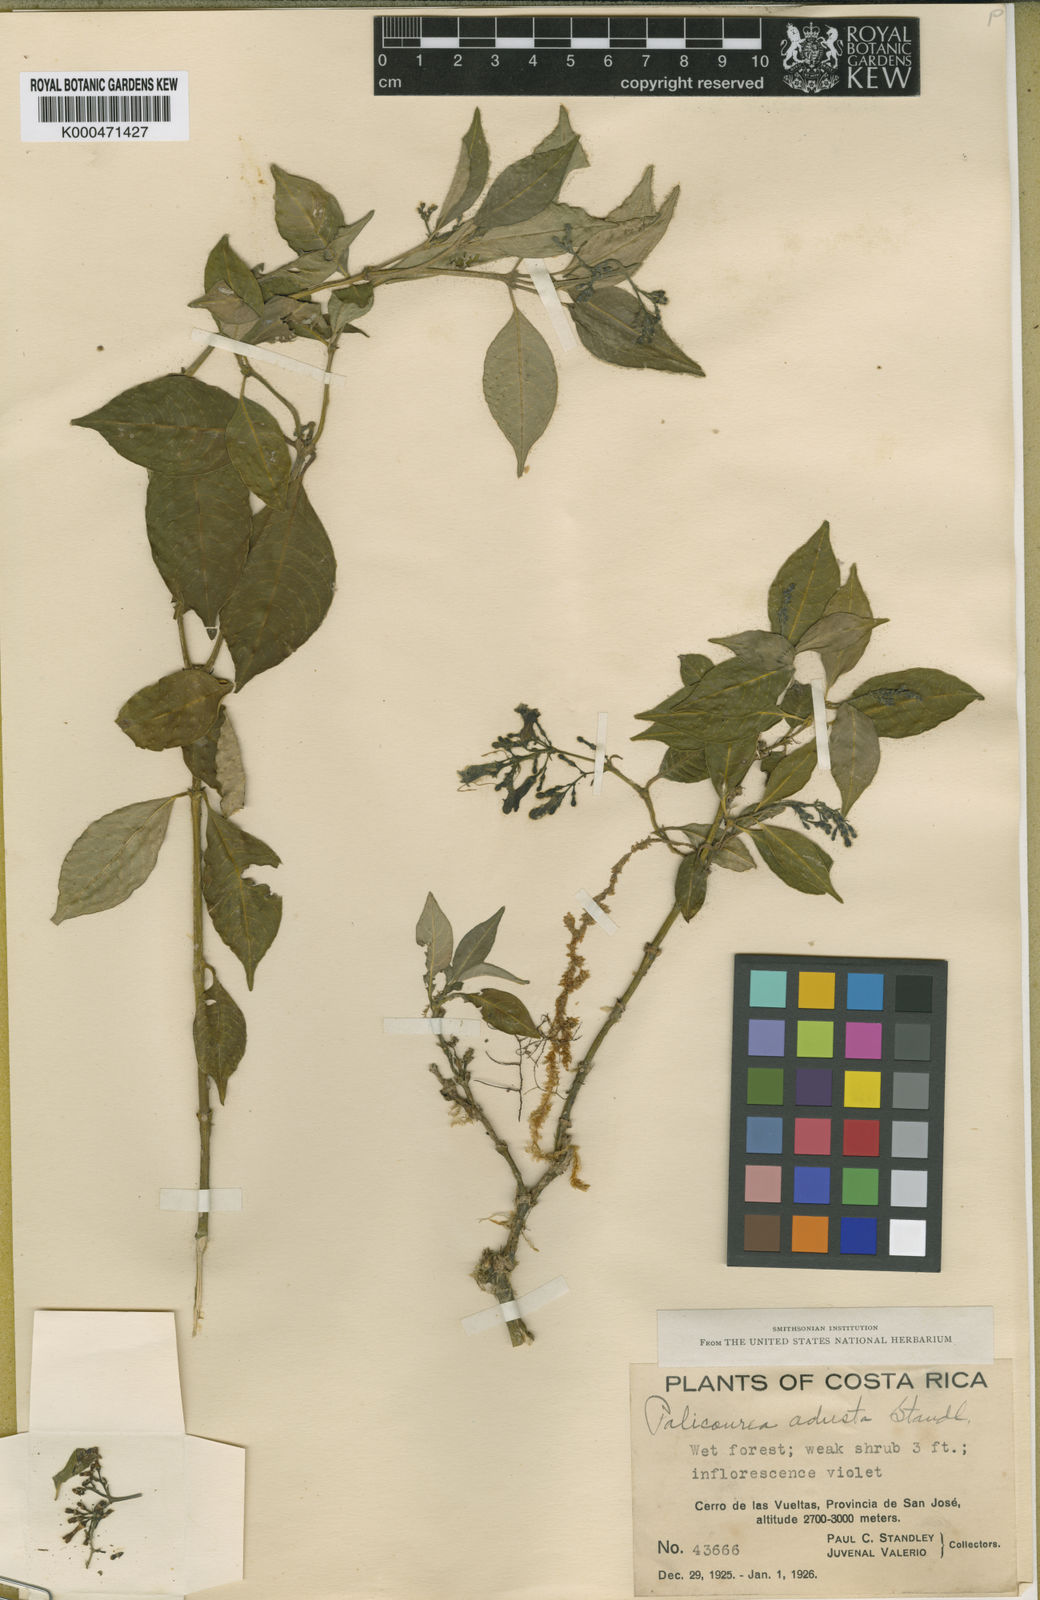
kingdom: Plantae
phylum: Tracheophyta
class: Magnoliopsida
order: Gentianales
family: Rubiaceae
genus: Palicourea
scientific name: Palicourea adusta
